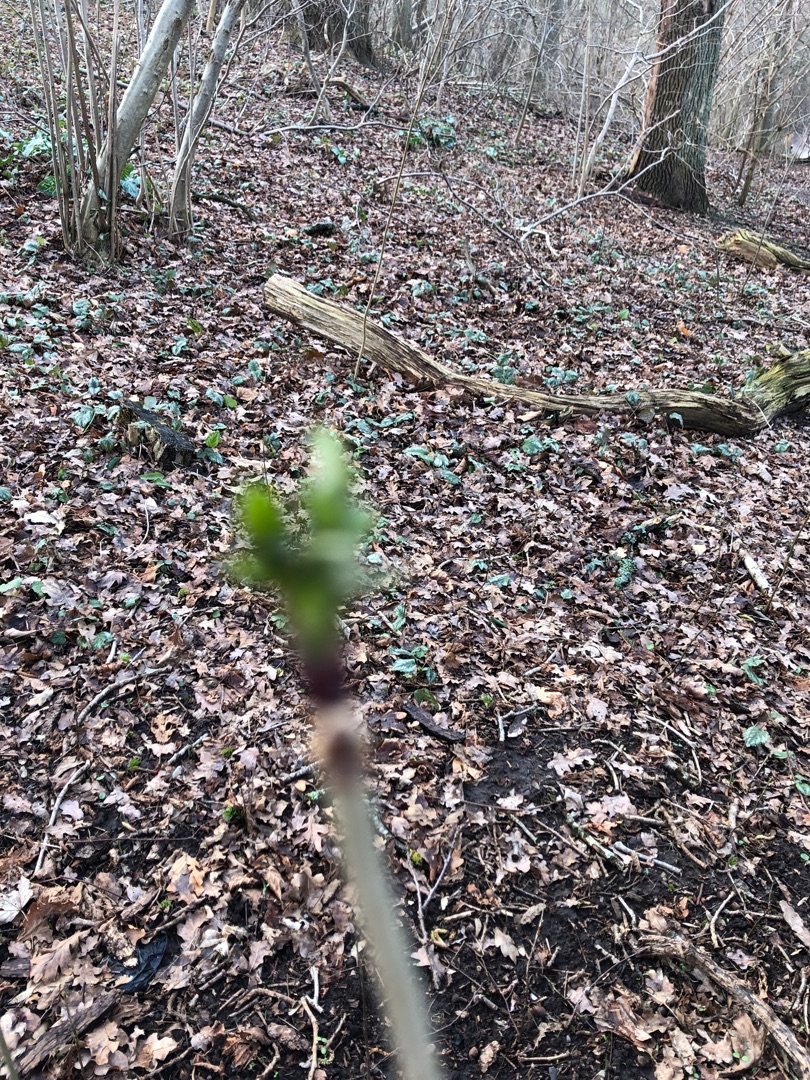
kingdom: Plantae
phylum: Tracheophyta
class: Magnoliopsida
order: Dipsacales
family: Viburnaceae
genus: Sambucus
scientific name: Sambucus nigra
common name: Almindelig hyld
